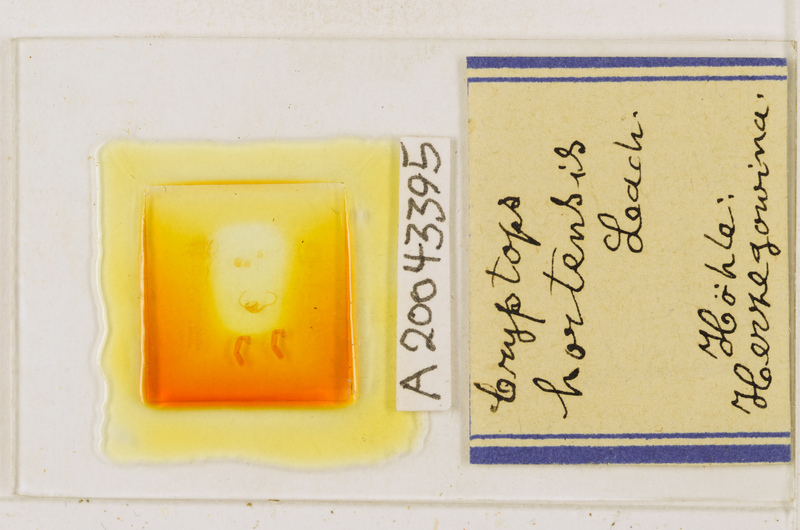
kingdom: Animalia
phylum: Arthropoda
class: Chilopoda
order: Scolopendromorpha
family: Cryptopidae
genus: Cryptops
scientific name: Cryptops hortensis
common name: Centipede
